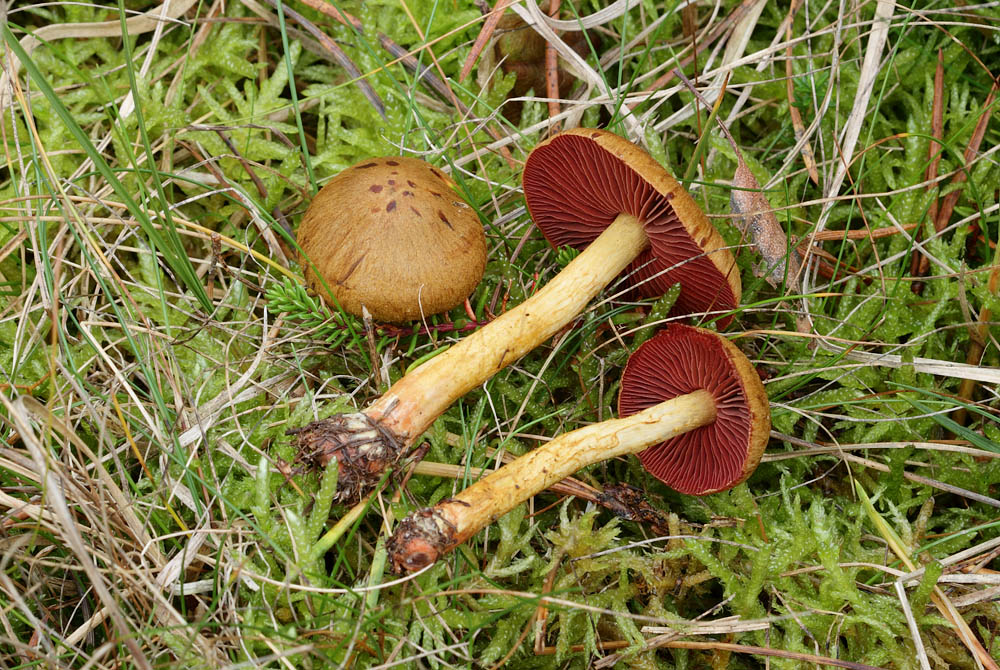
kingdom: Fungi
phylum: Basidiomycota
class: Agaricomycetes
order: Agaricales
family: Cortinariaceae
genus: Cortinarius
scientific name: Cortinarius
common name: cinnoberbladet slørhat
